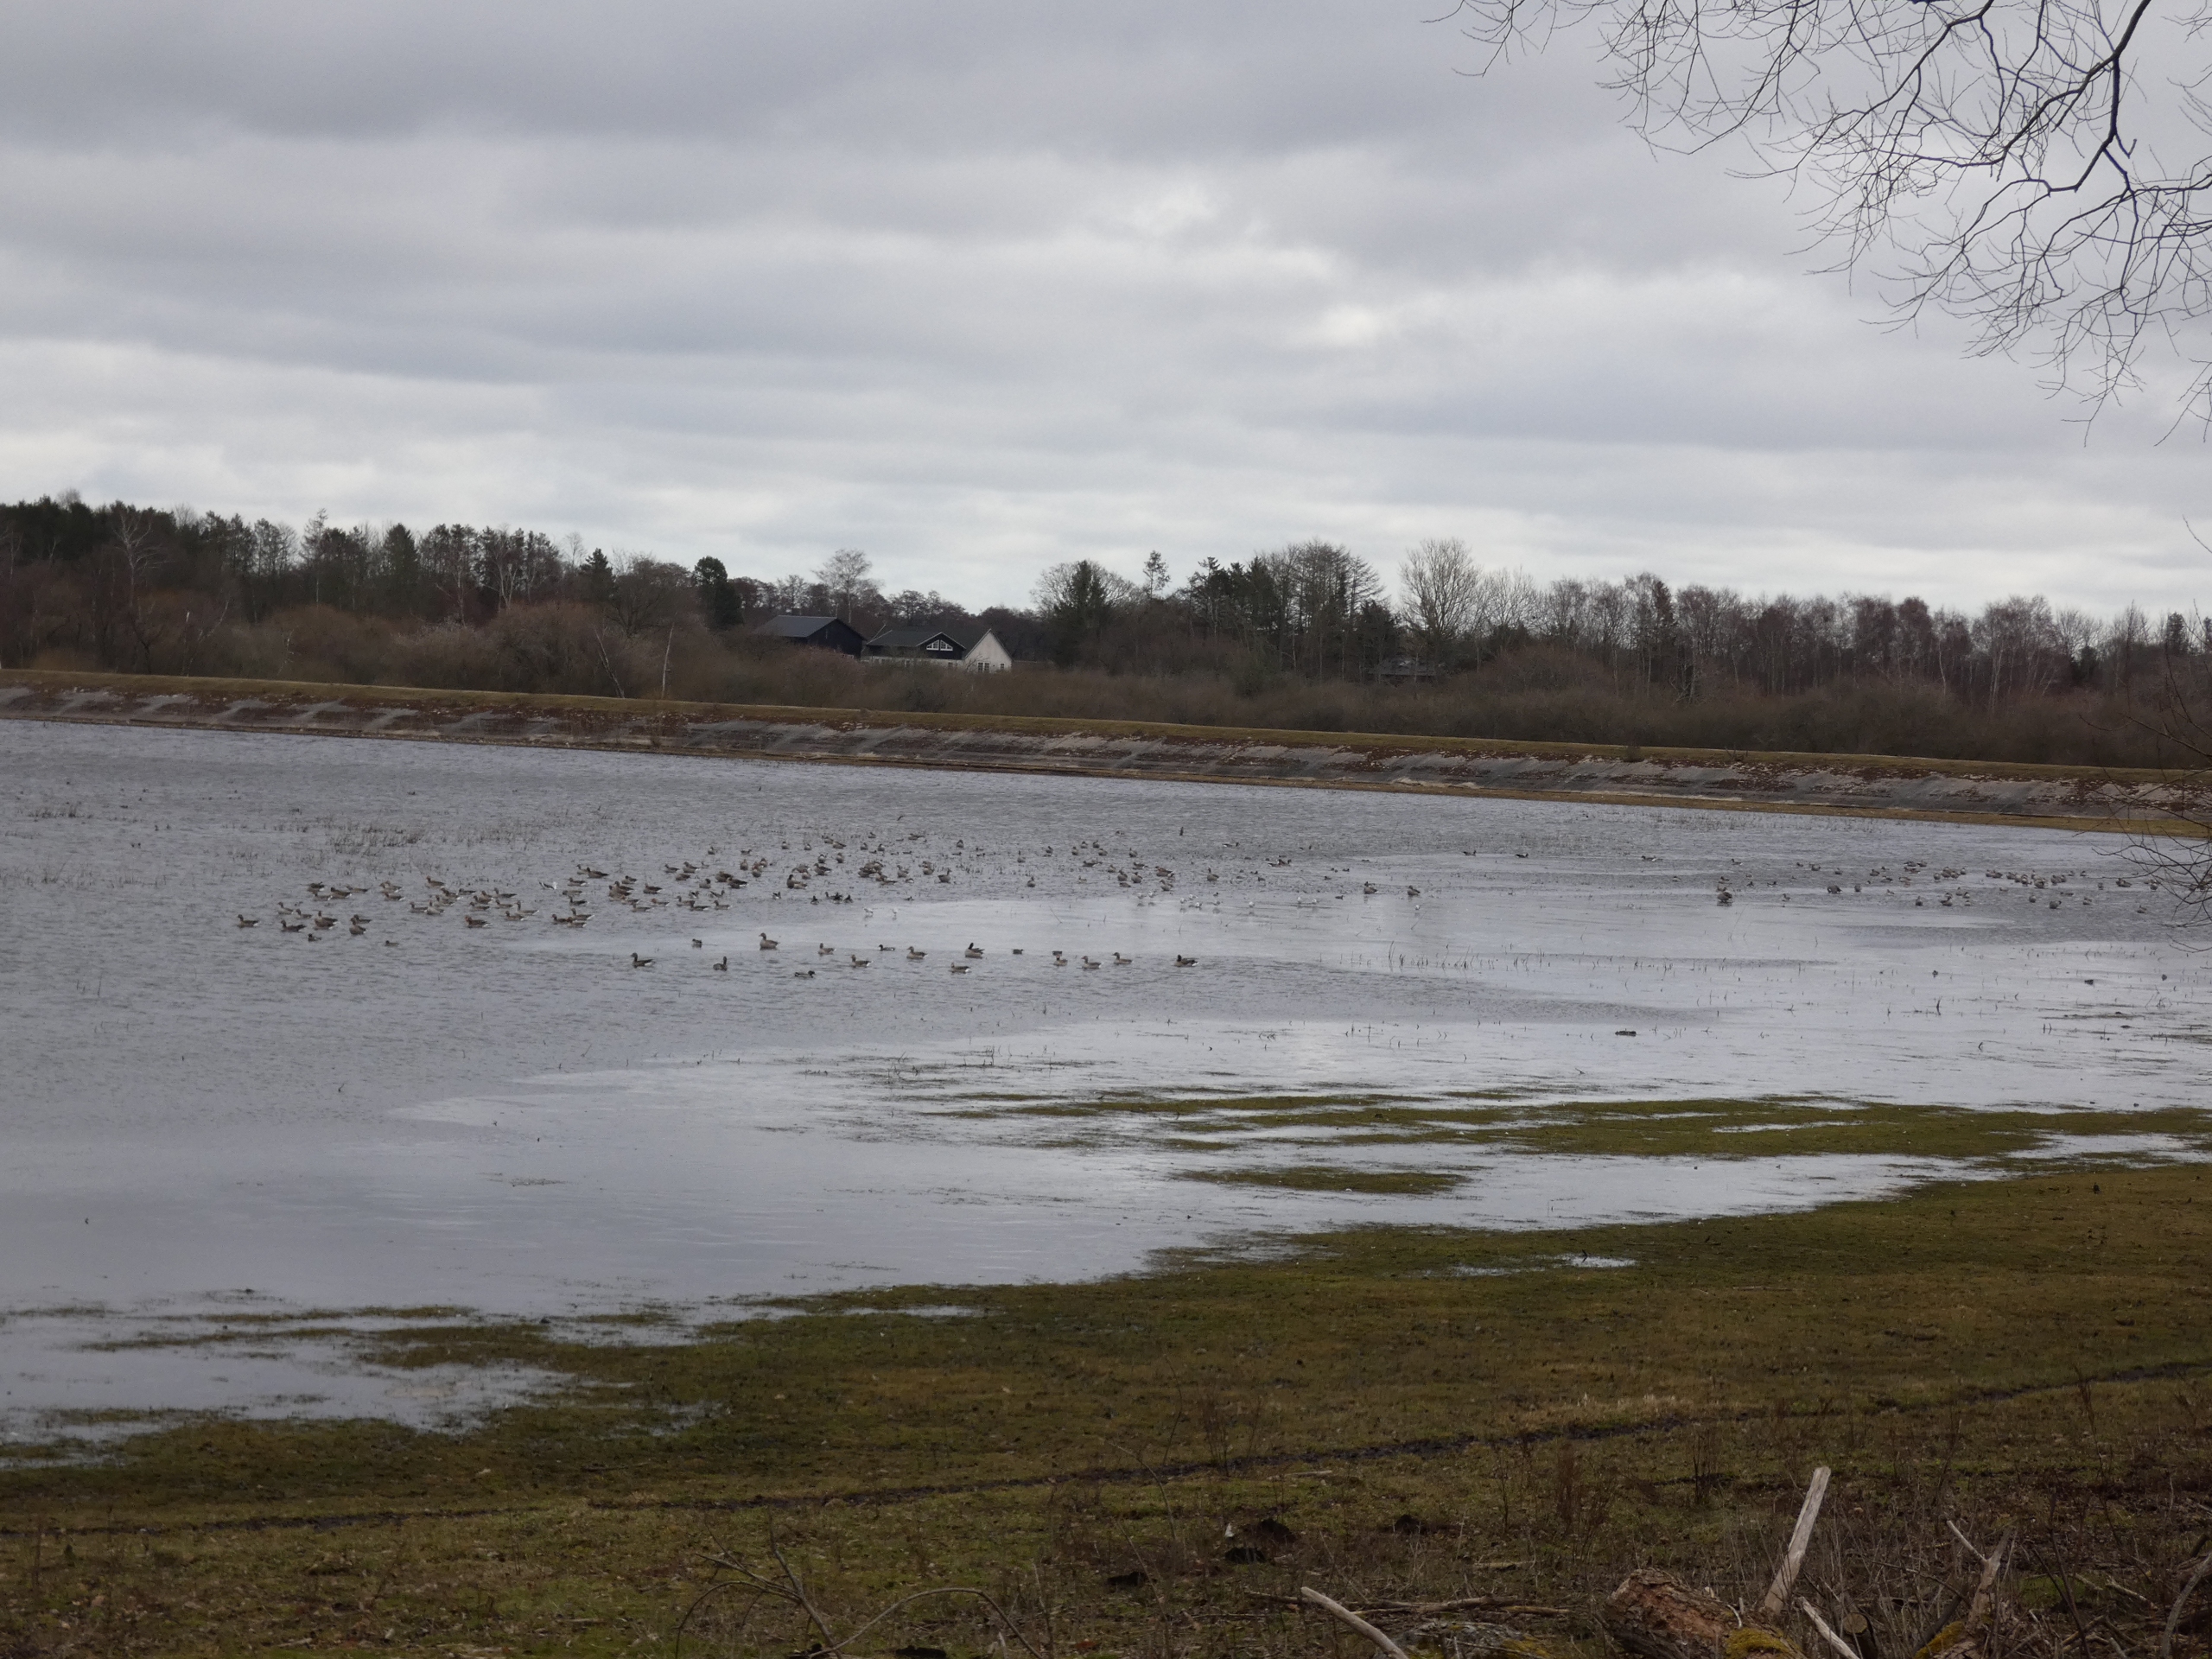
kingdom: Animalia
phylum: Chordata
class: Aves
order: Charadriiformes
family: Laridae
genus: Chroicocephalus
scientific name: Chroicocephalus ridibundus
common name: Hættemåge
